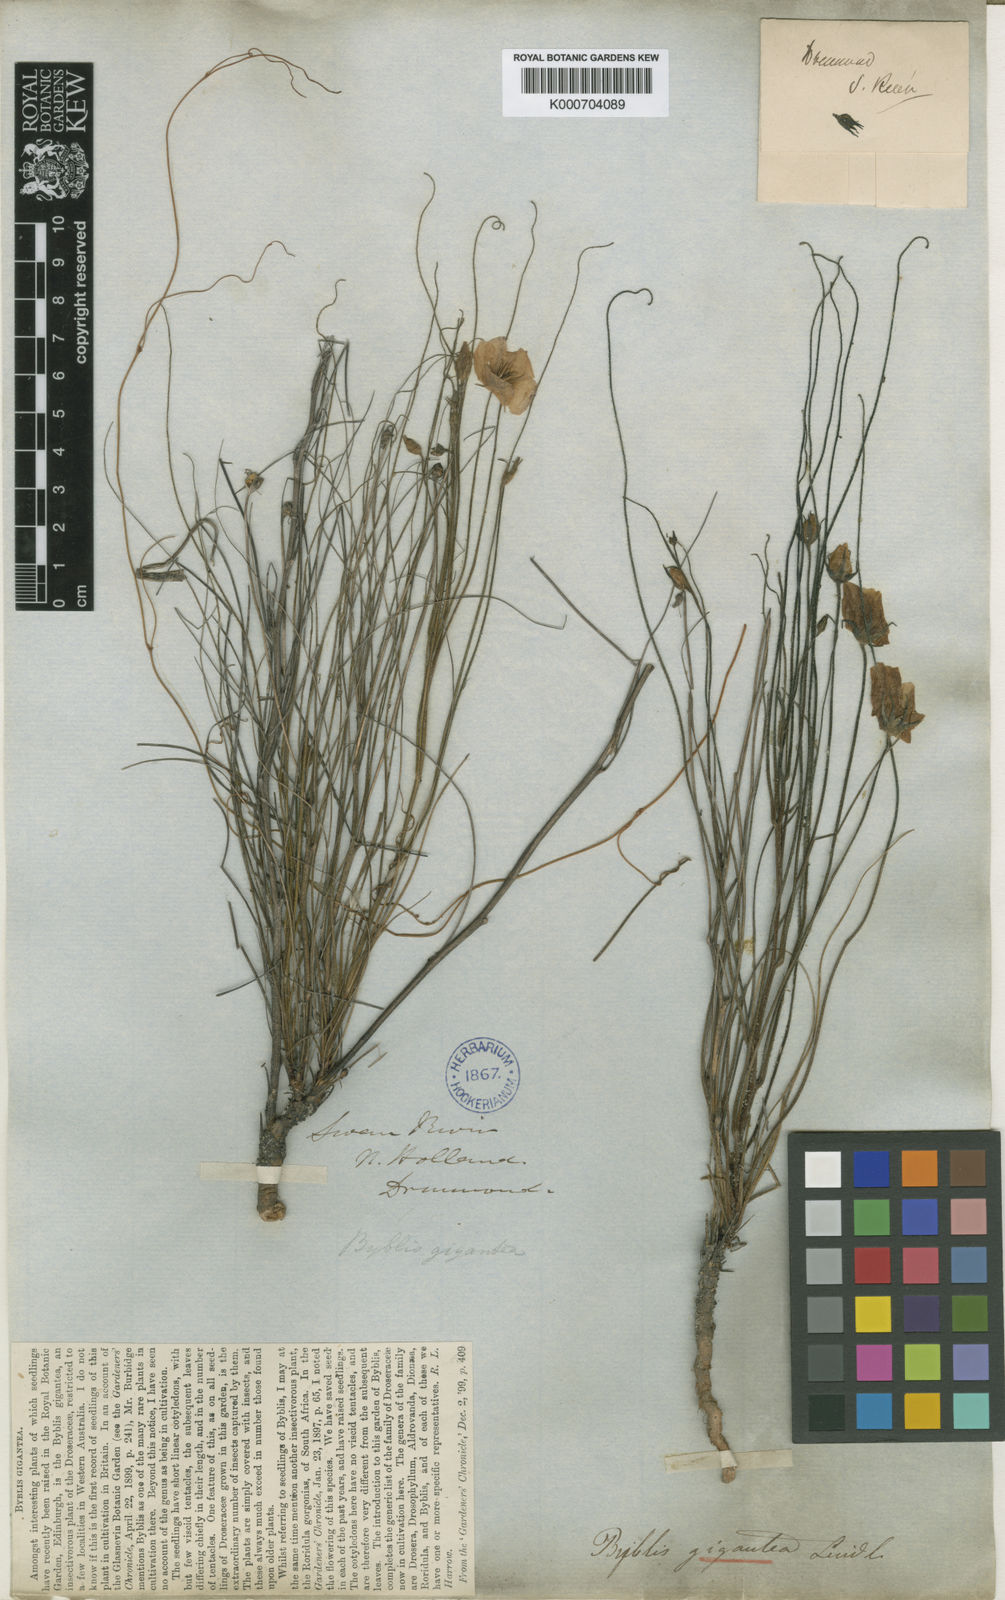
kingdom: Plantae
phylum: Tracheophyta
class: Magnoliopsida
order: Lamiales
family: Byblidaceae
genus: Byblis
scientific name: Byblis gigantea
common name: Rainbowplant
